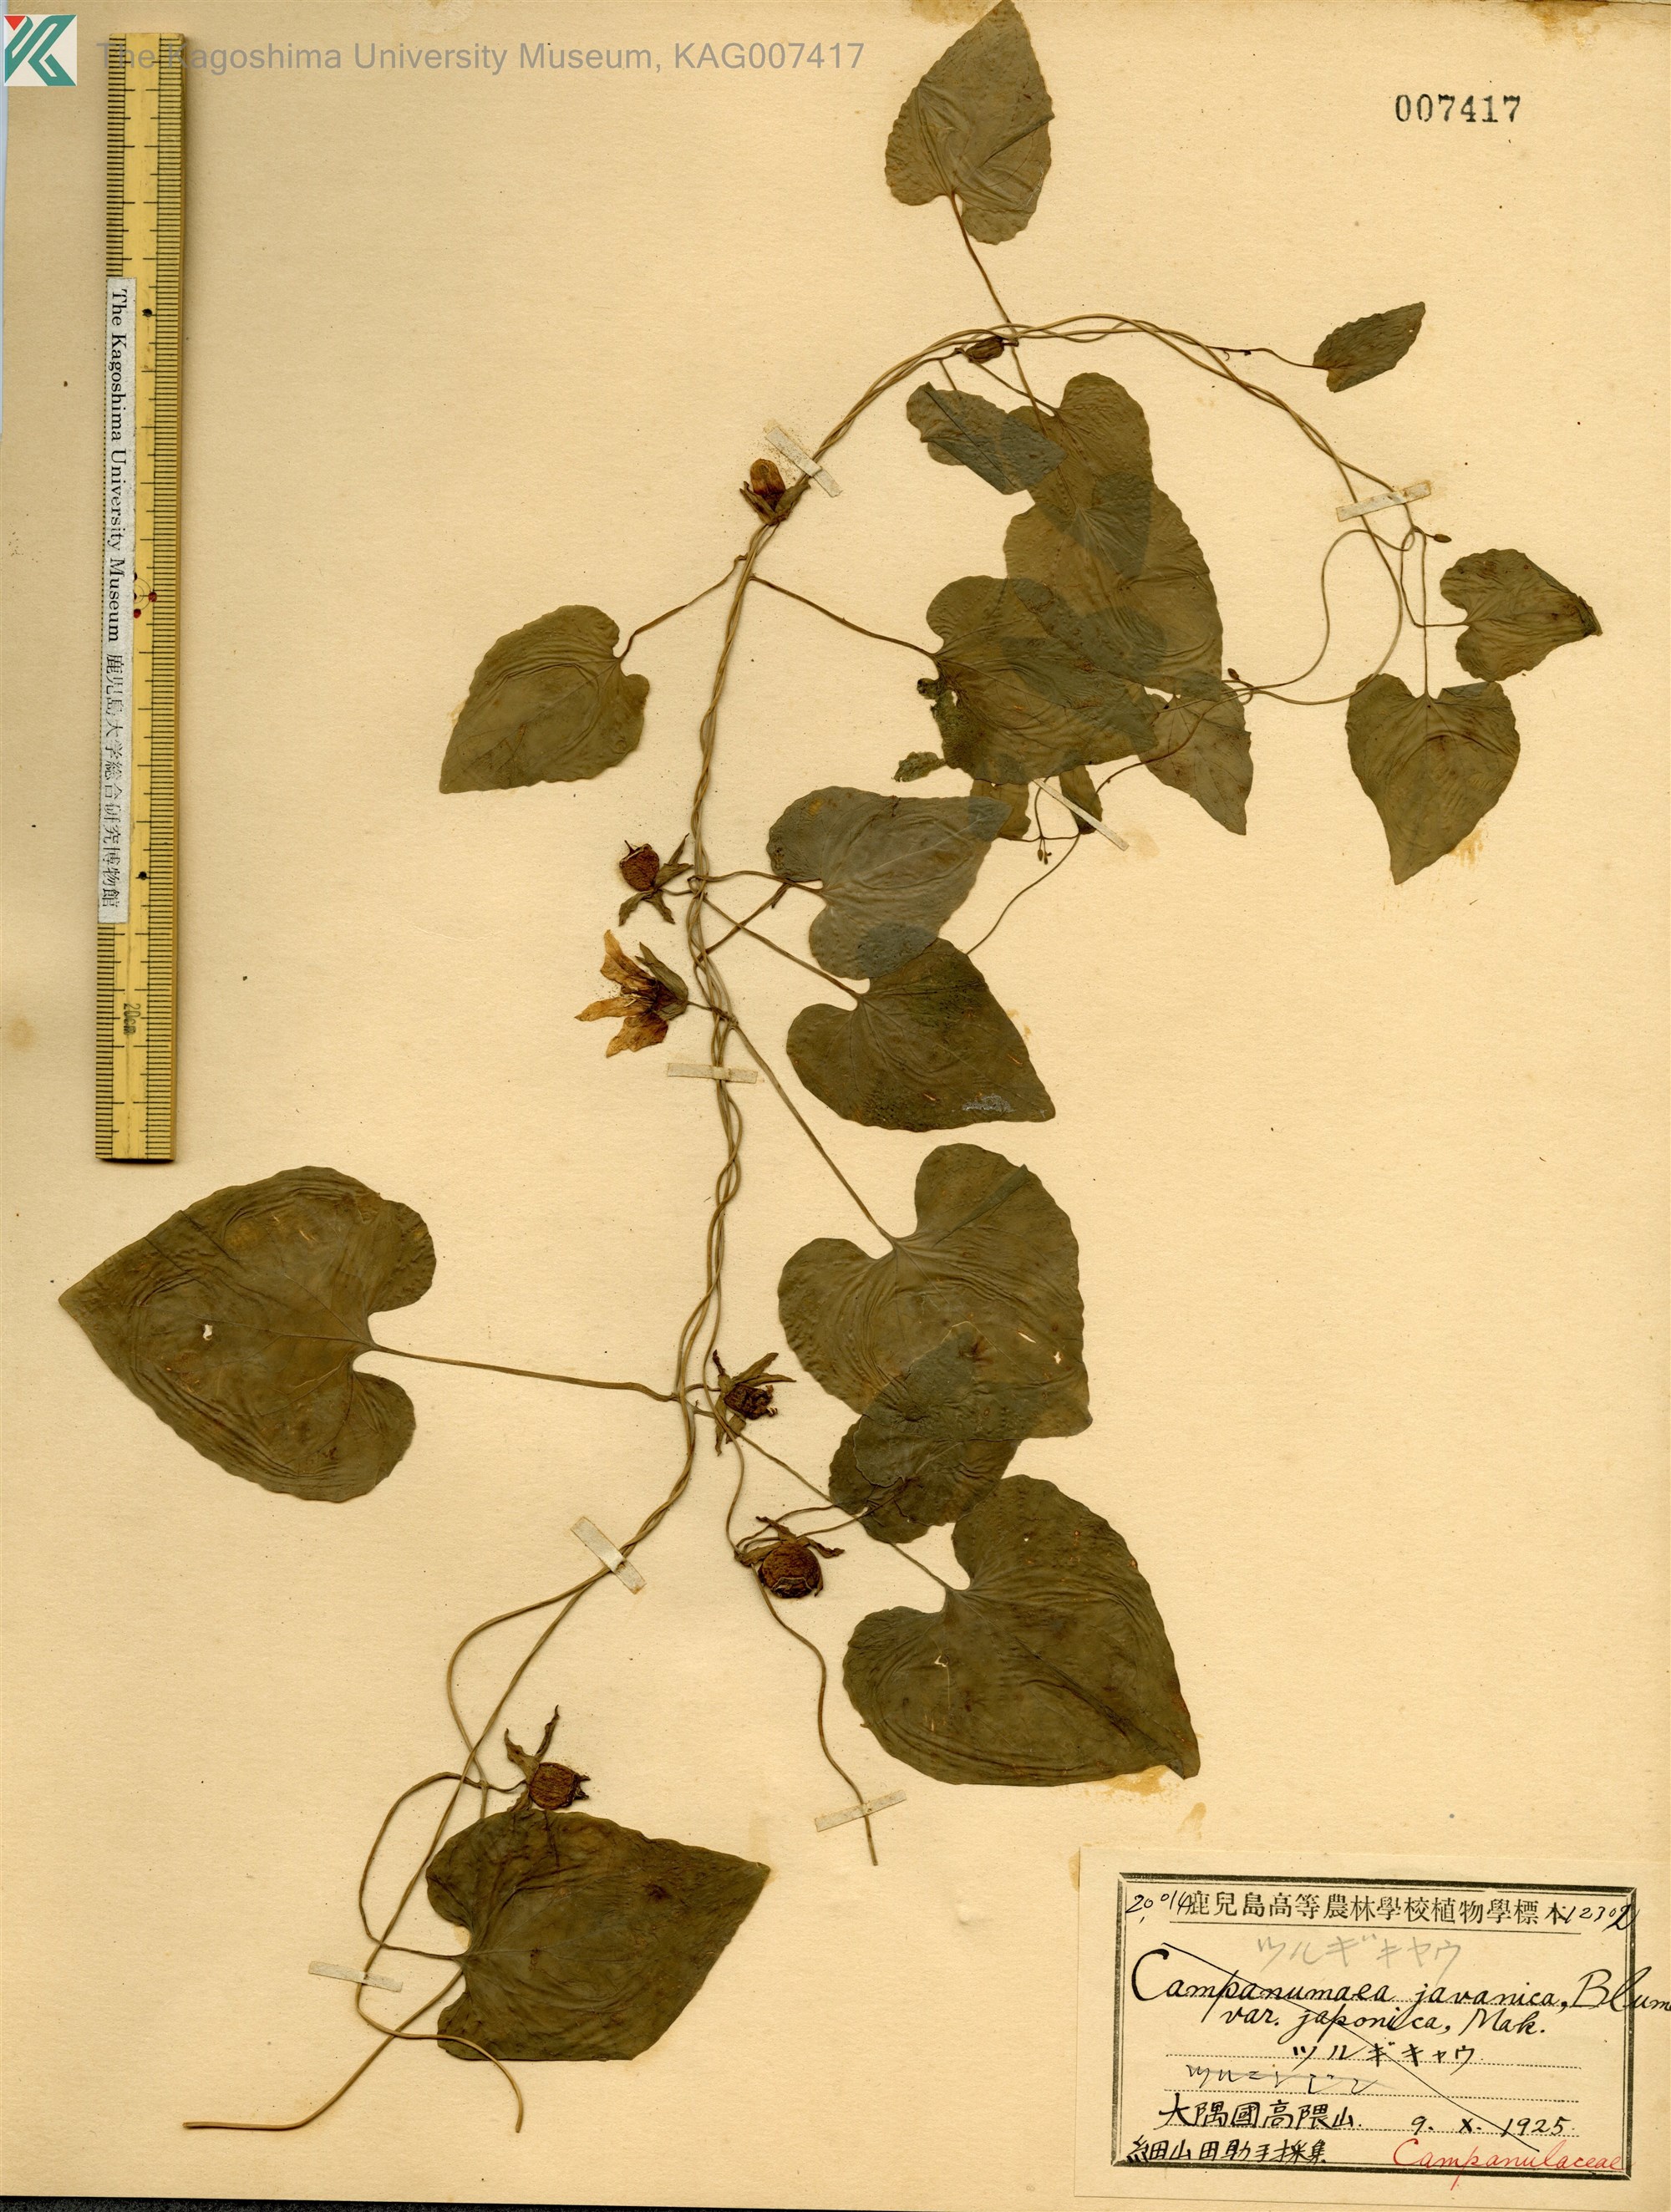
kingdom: Plantae
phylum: Tracheophyta
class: Magnoliopsida
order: Asterales
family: Campanulaceae
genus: Codonopsis
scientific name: Codonopsis javanica
